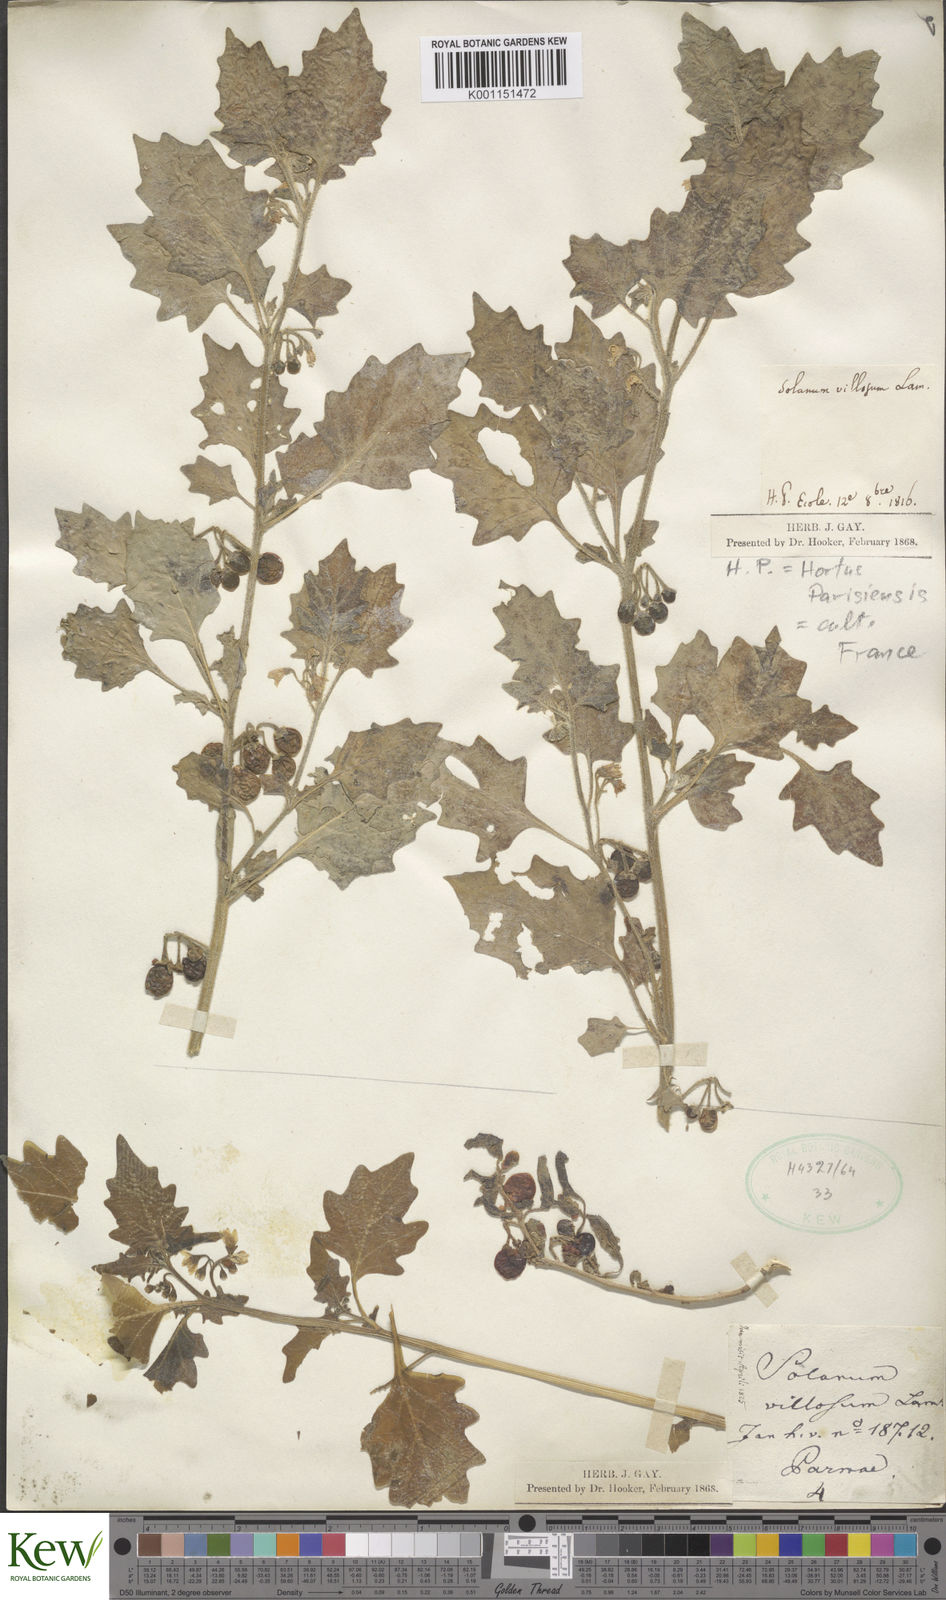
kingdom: Plantae
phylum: Tracheophyta
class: Magnoliopsida
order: Solanales
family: Solanaceae
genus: Solanum
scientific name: Solanum villosum
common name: Red nightshade
